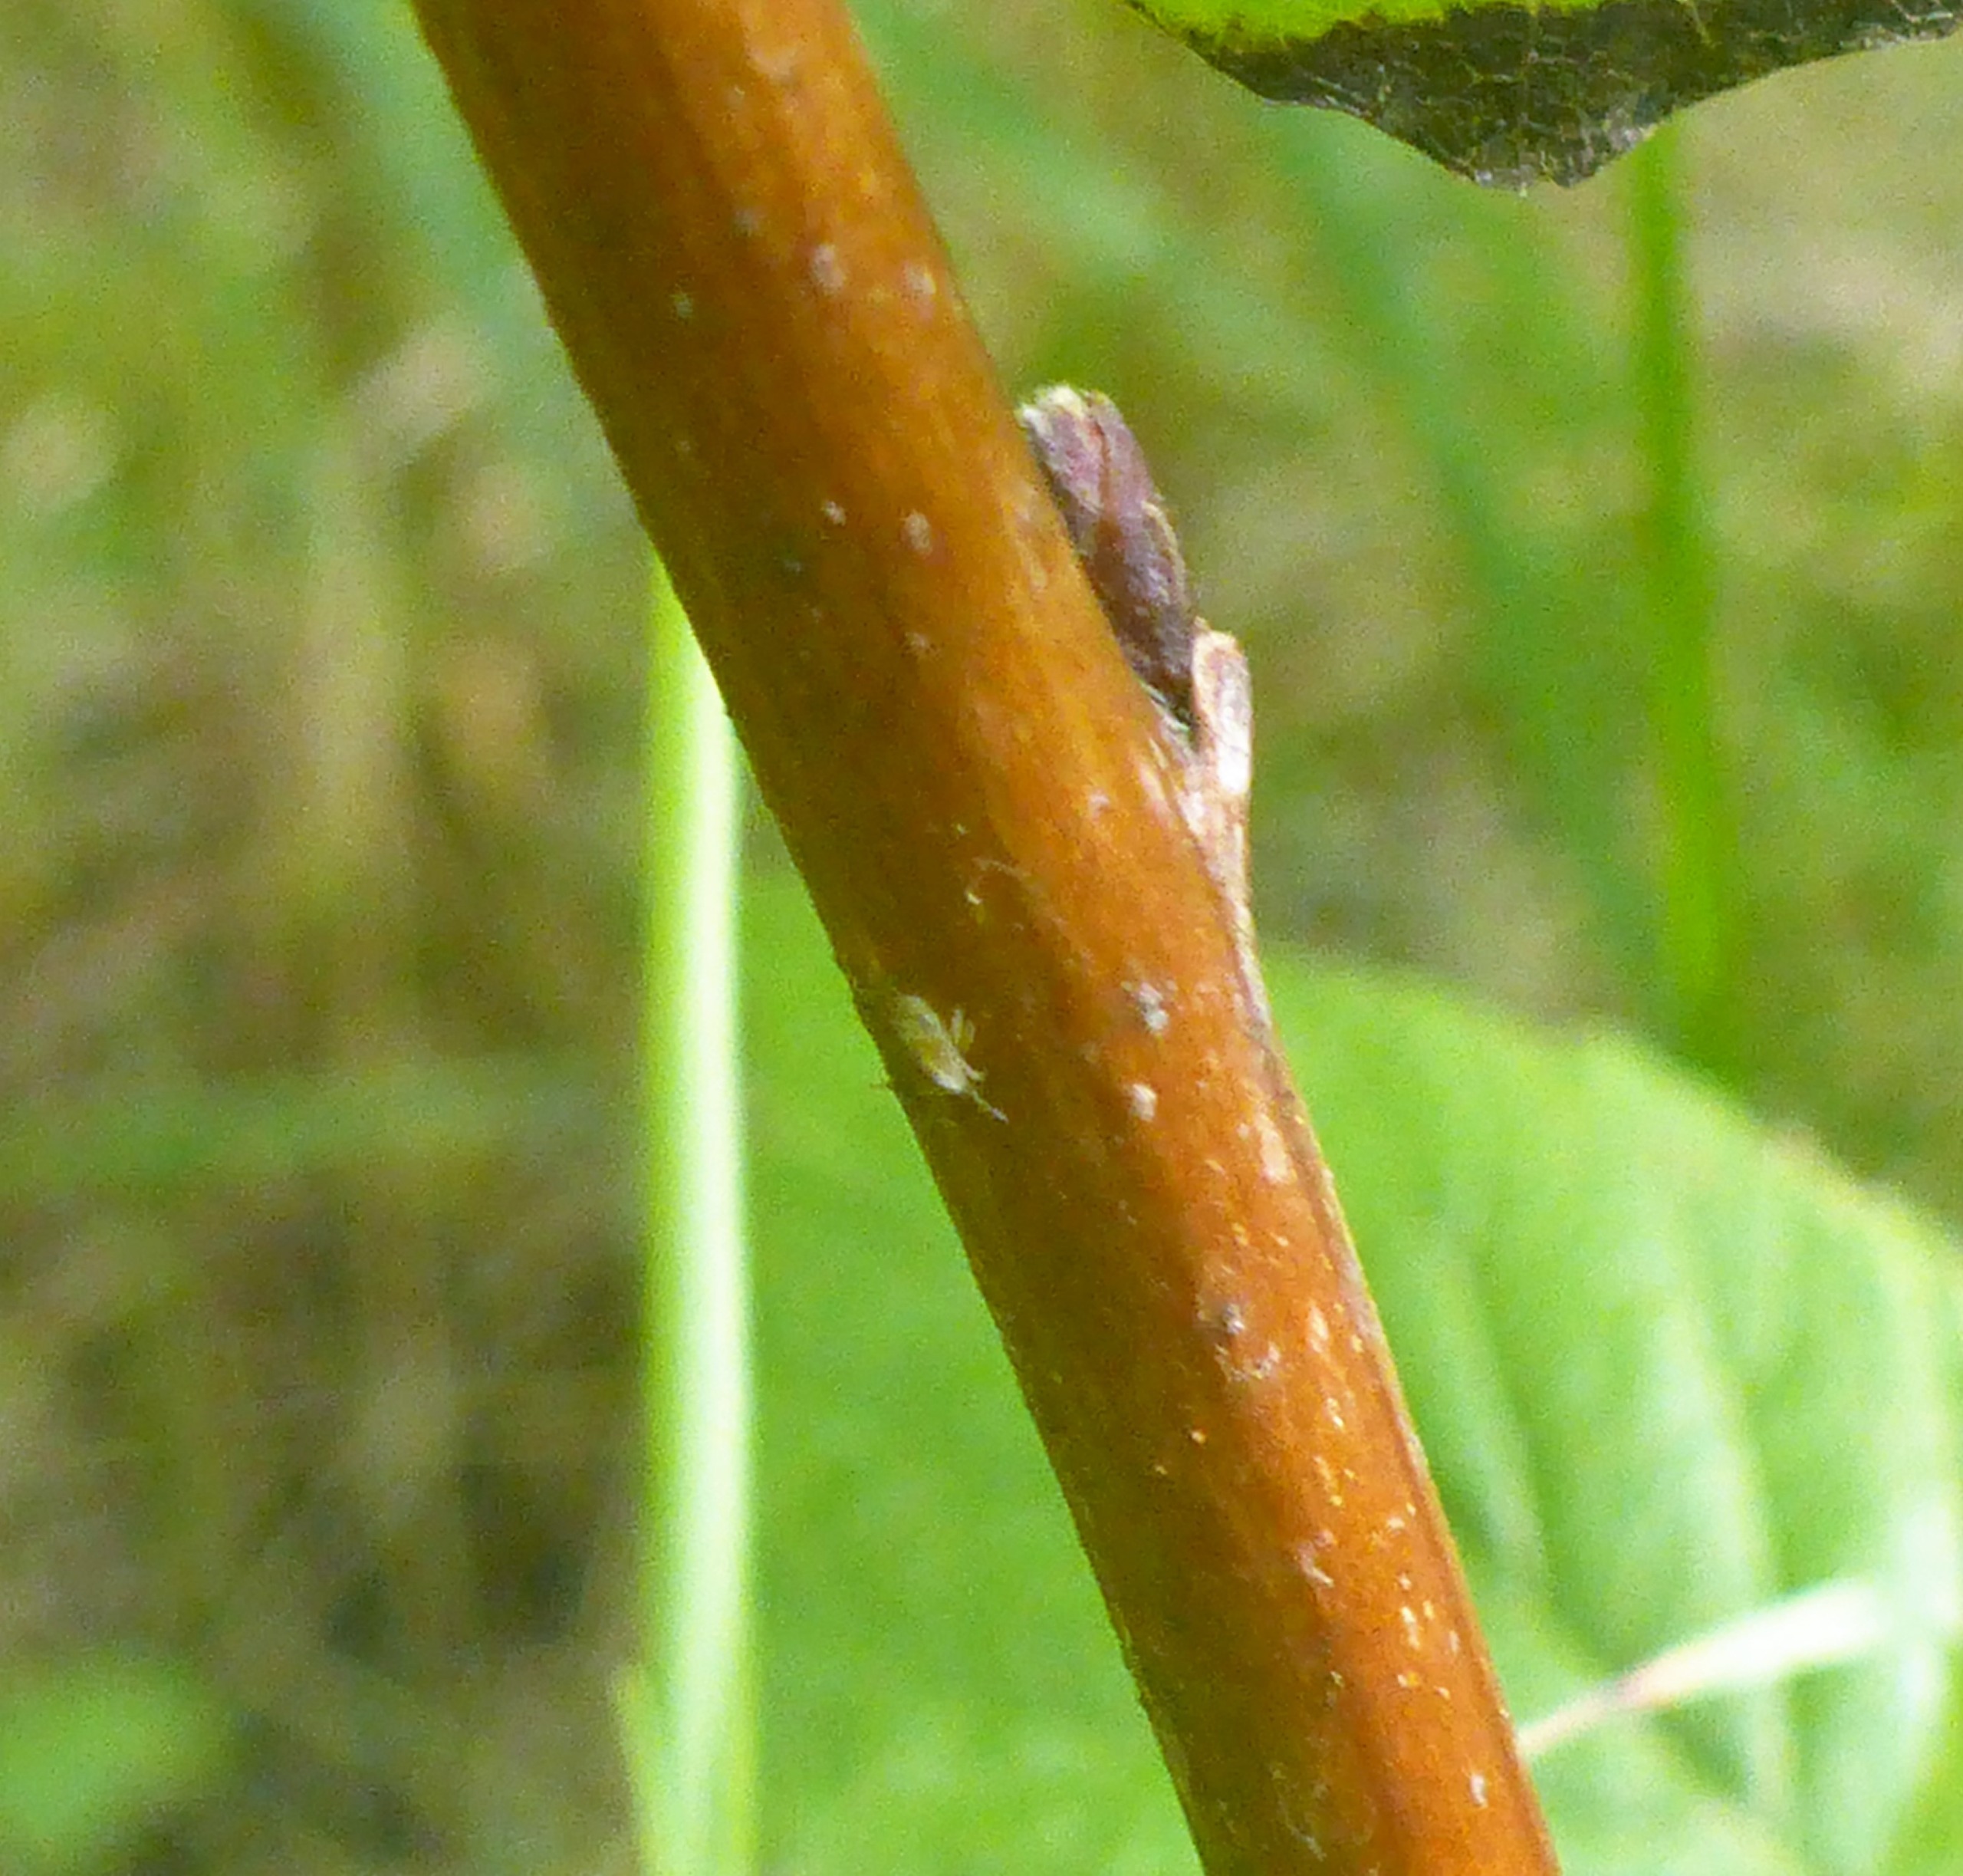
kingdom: Plantae
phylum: Tracheophyta
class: Magnoliopsida
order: Rosales
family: Rosaceae
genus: Rubus
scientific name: Rubus idaeus
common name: Hindbær
